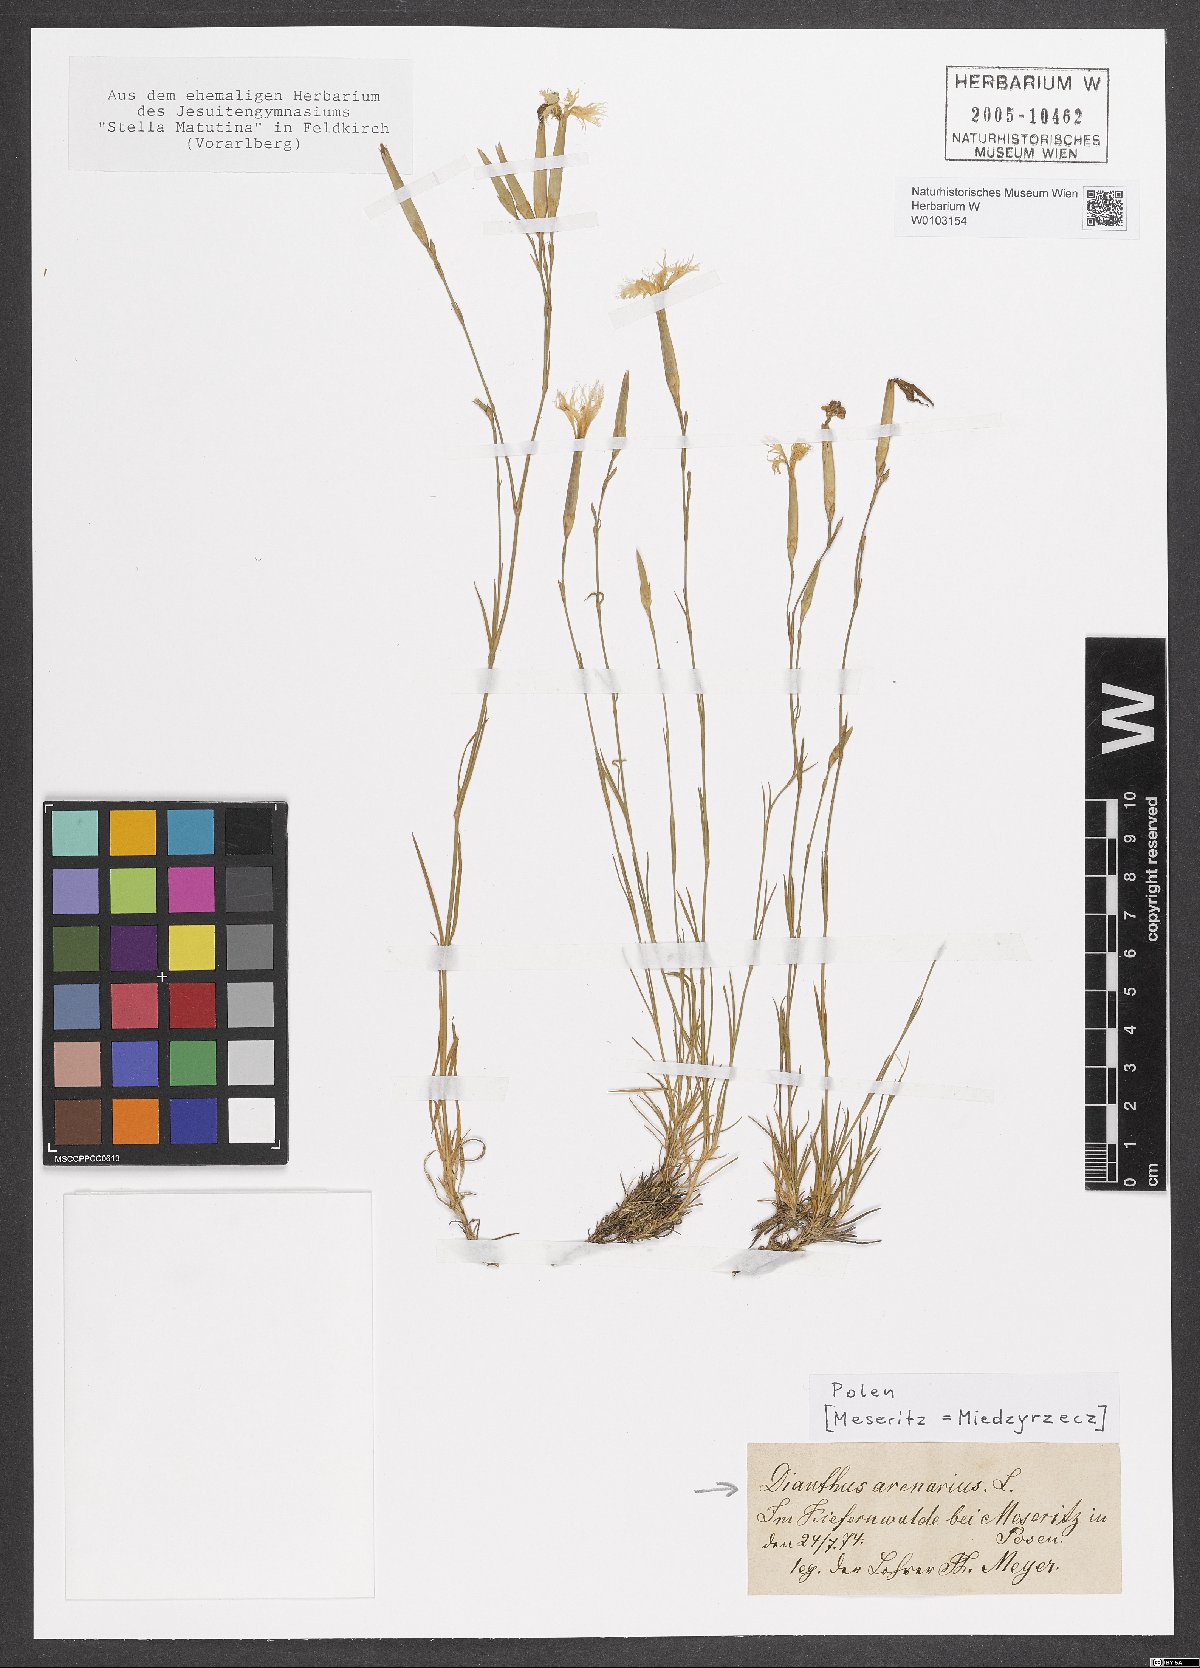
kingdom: Plantae
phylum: Tracheophyta
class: Magnoliopsida
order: Caryophyllales
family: Caryophyllaceae
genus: Dianthus
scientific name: Dianthus arenarius
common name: Stone pink
